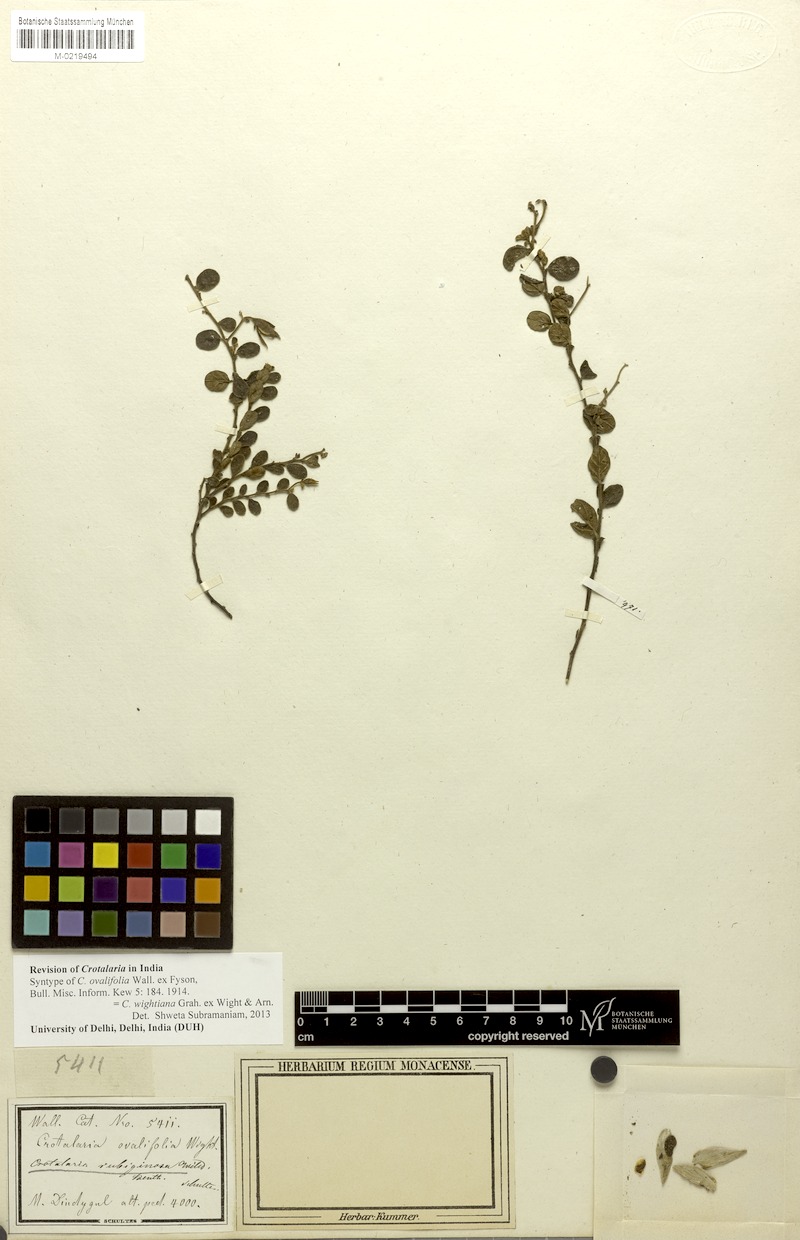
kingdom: Plantae
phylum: Tracheophyta
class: Magnoliopsida
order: Fabales
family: Fabaceae
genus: Crotalaria
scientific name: Crotalaria wightiana
